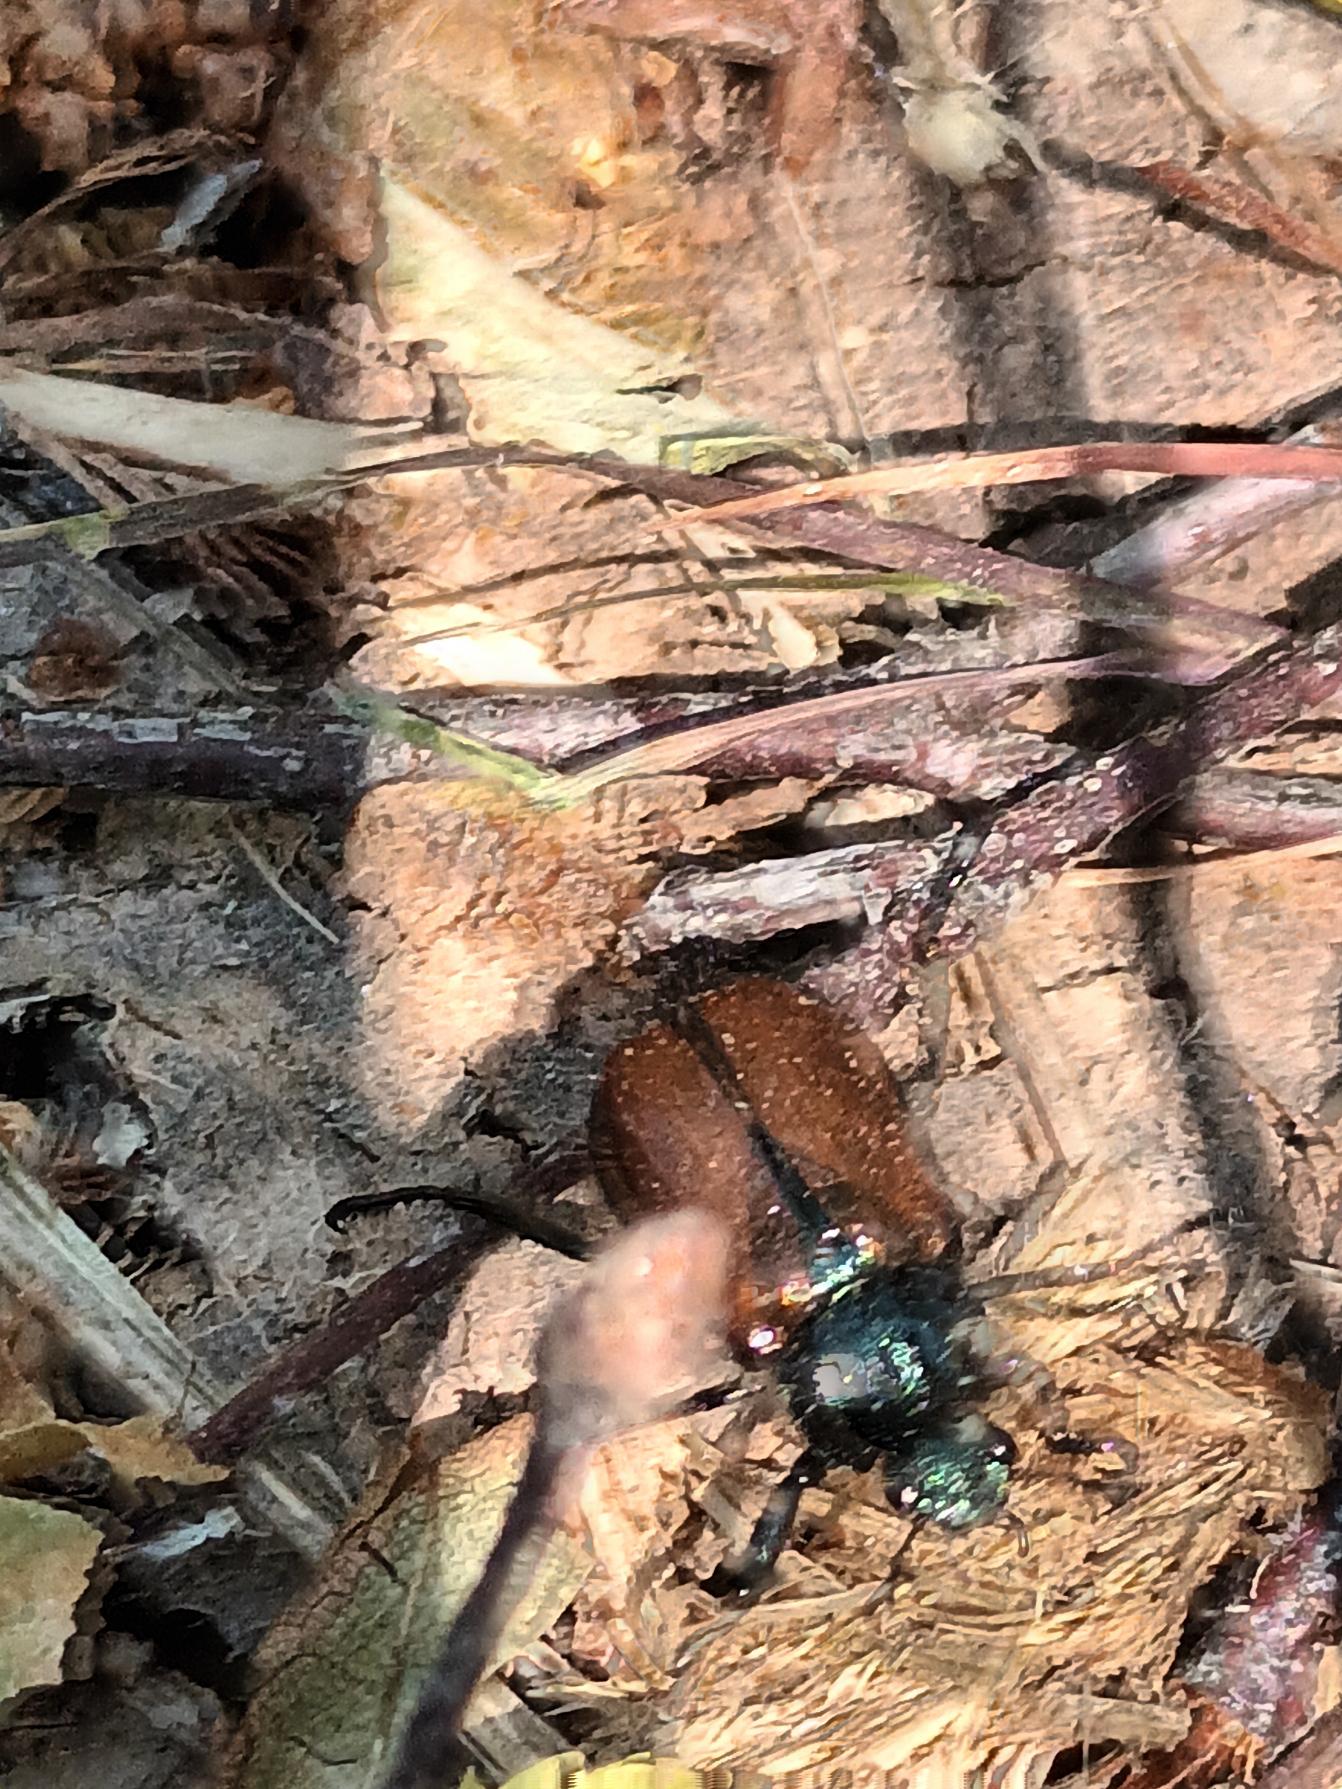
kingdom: Animalia
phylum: Arthropoda
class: Insecta
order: Coleoptera
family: Scarabaeidae
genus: Phyllopertha
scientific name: Phyllopertha horticola
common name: Gåsebille
